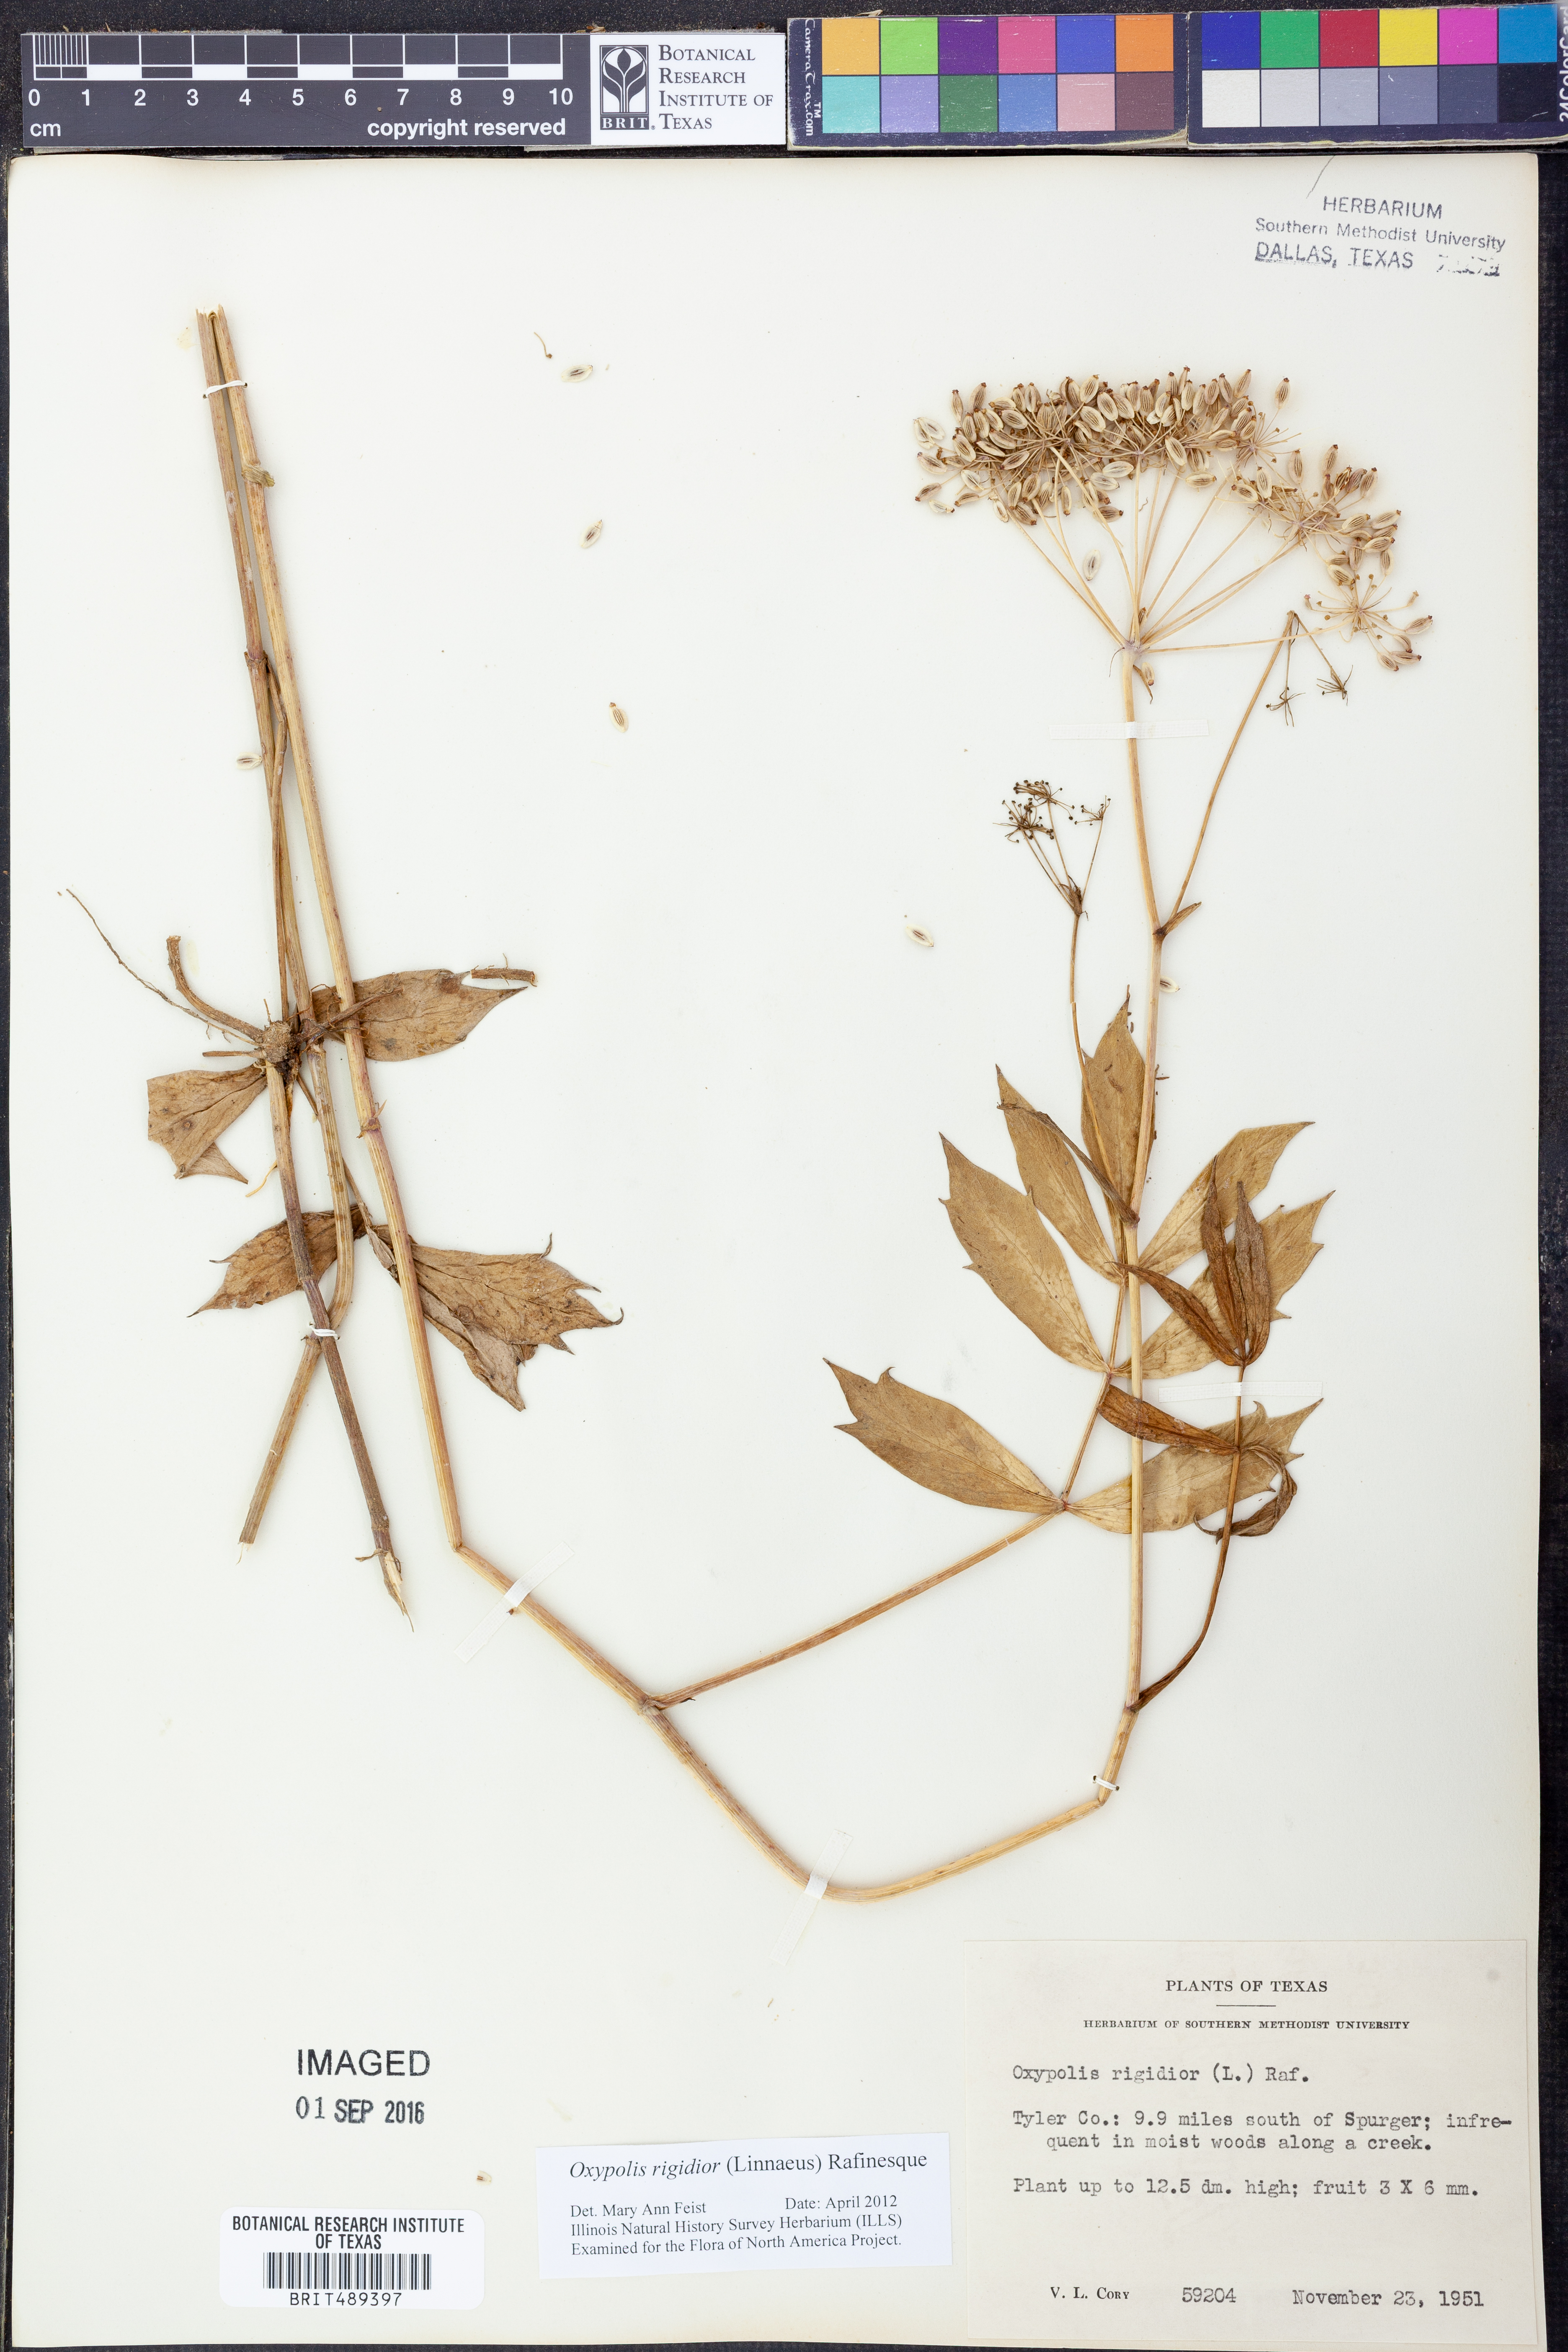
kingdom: Plantae
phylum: Tracheophyta
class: Magnoliopsida
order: Apiales
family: Apiaceae
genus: Oxypolis
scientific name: Oxypolis rigidior
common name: Cowbane
